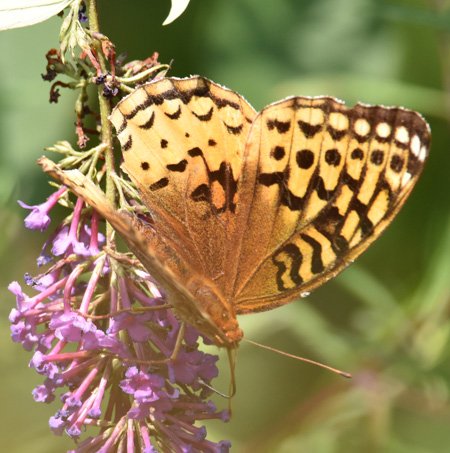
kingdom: Animalia
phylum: Arthropoda
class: Insecta
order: Lepidoptera
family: Nymphalidae
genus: Speyeria
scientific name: Speyeria cybele
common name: Great Spangled Fritillary
